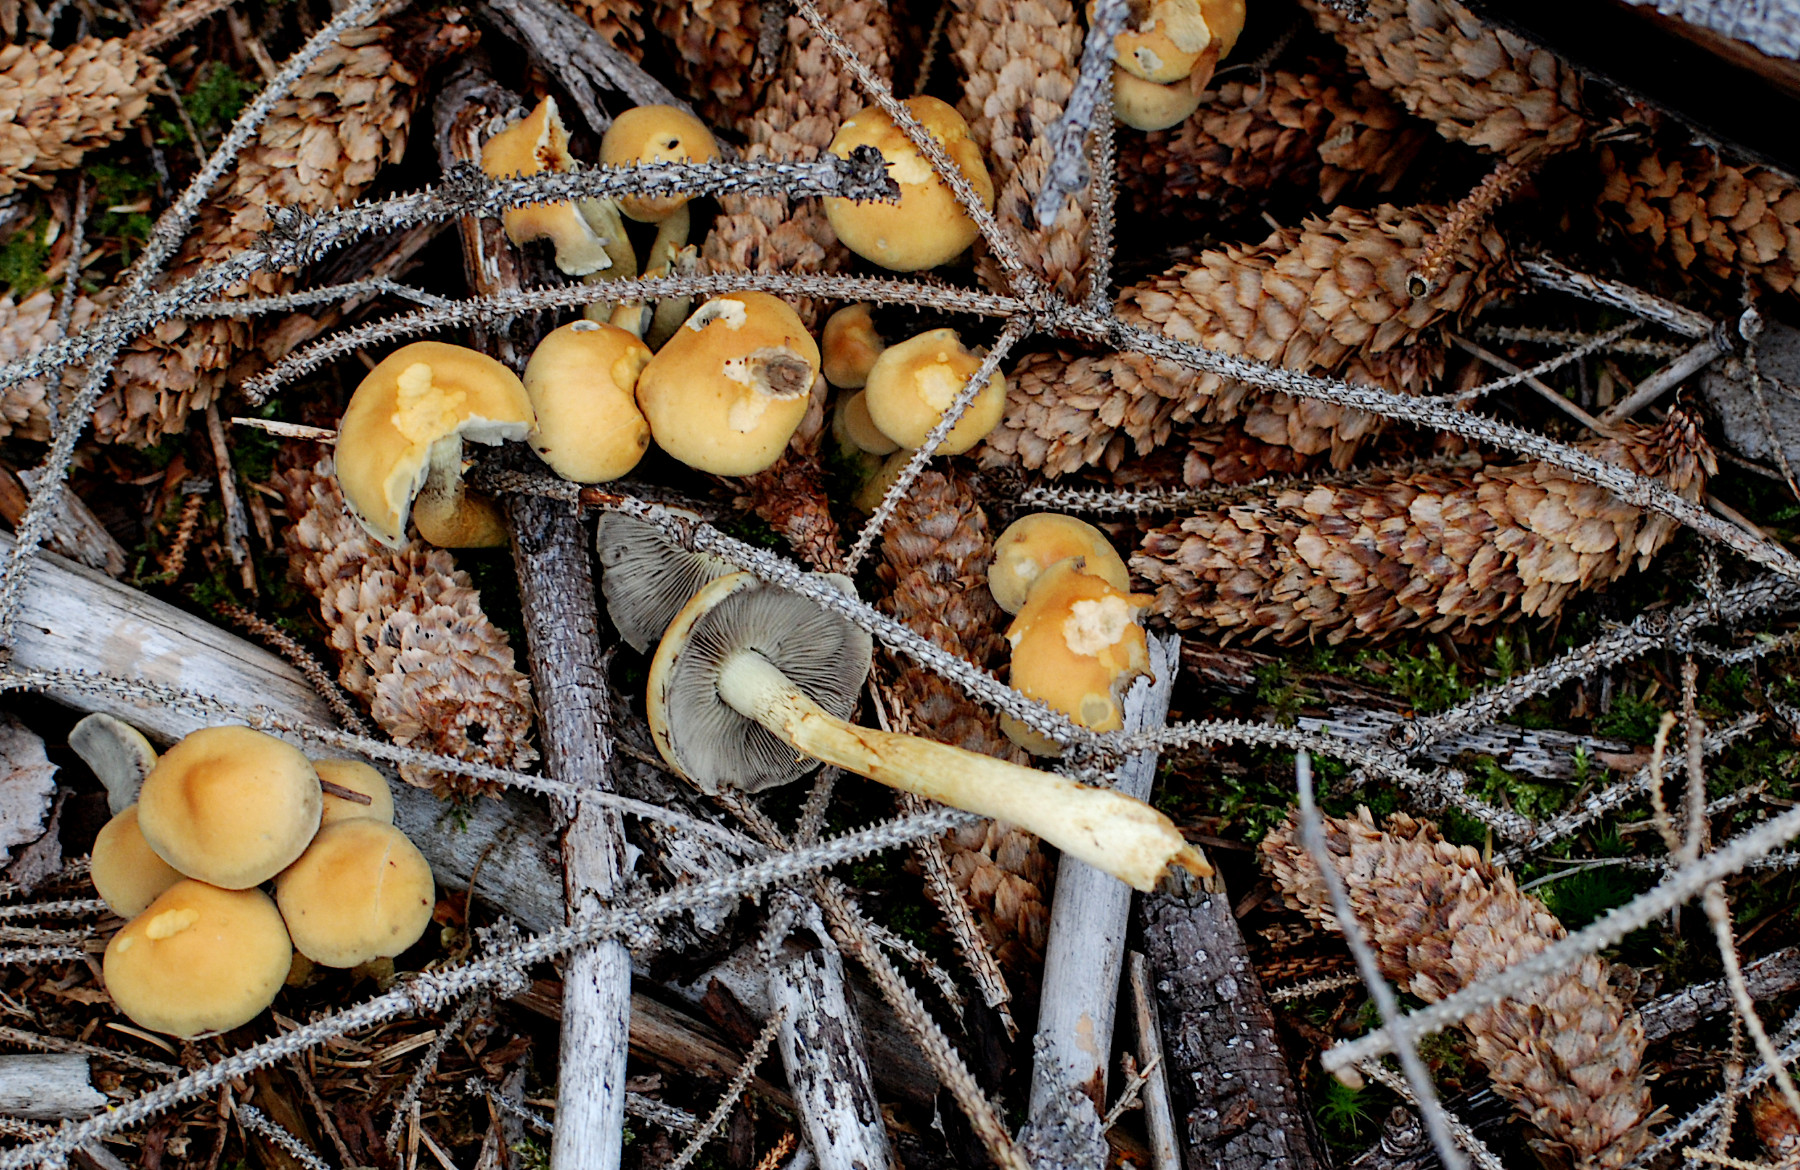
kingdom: Fungi
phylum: Basidiomycota
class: Agaricomycetes
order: Agaricales
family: Strophariaceae
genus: Hypholoma
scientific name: Hypholoma fasciculare
